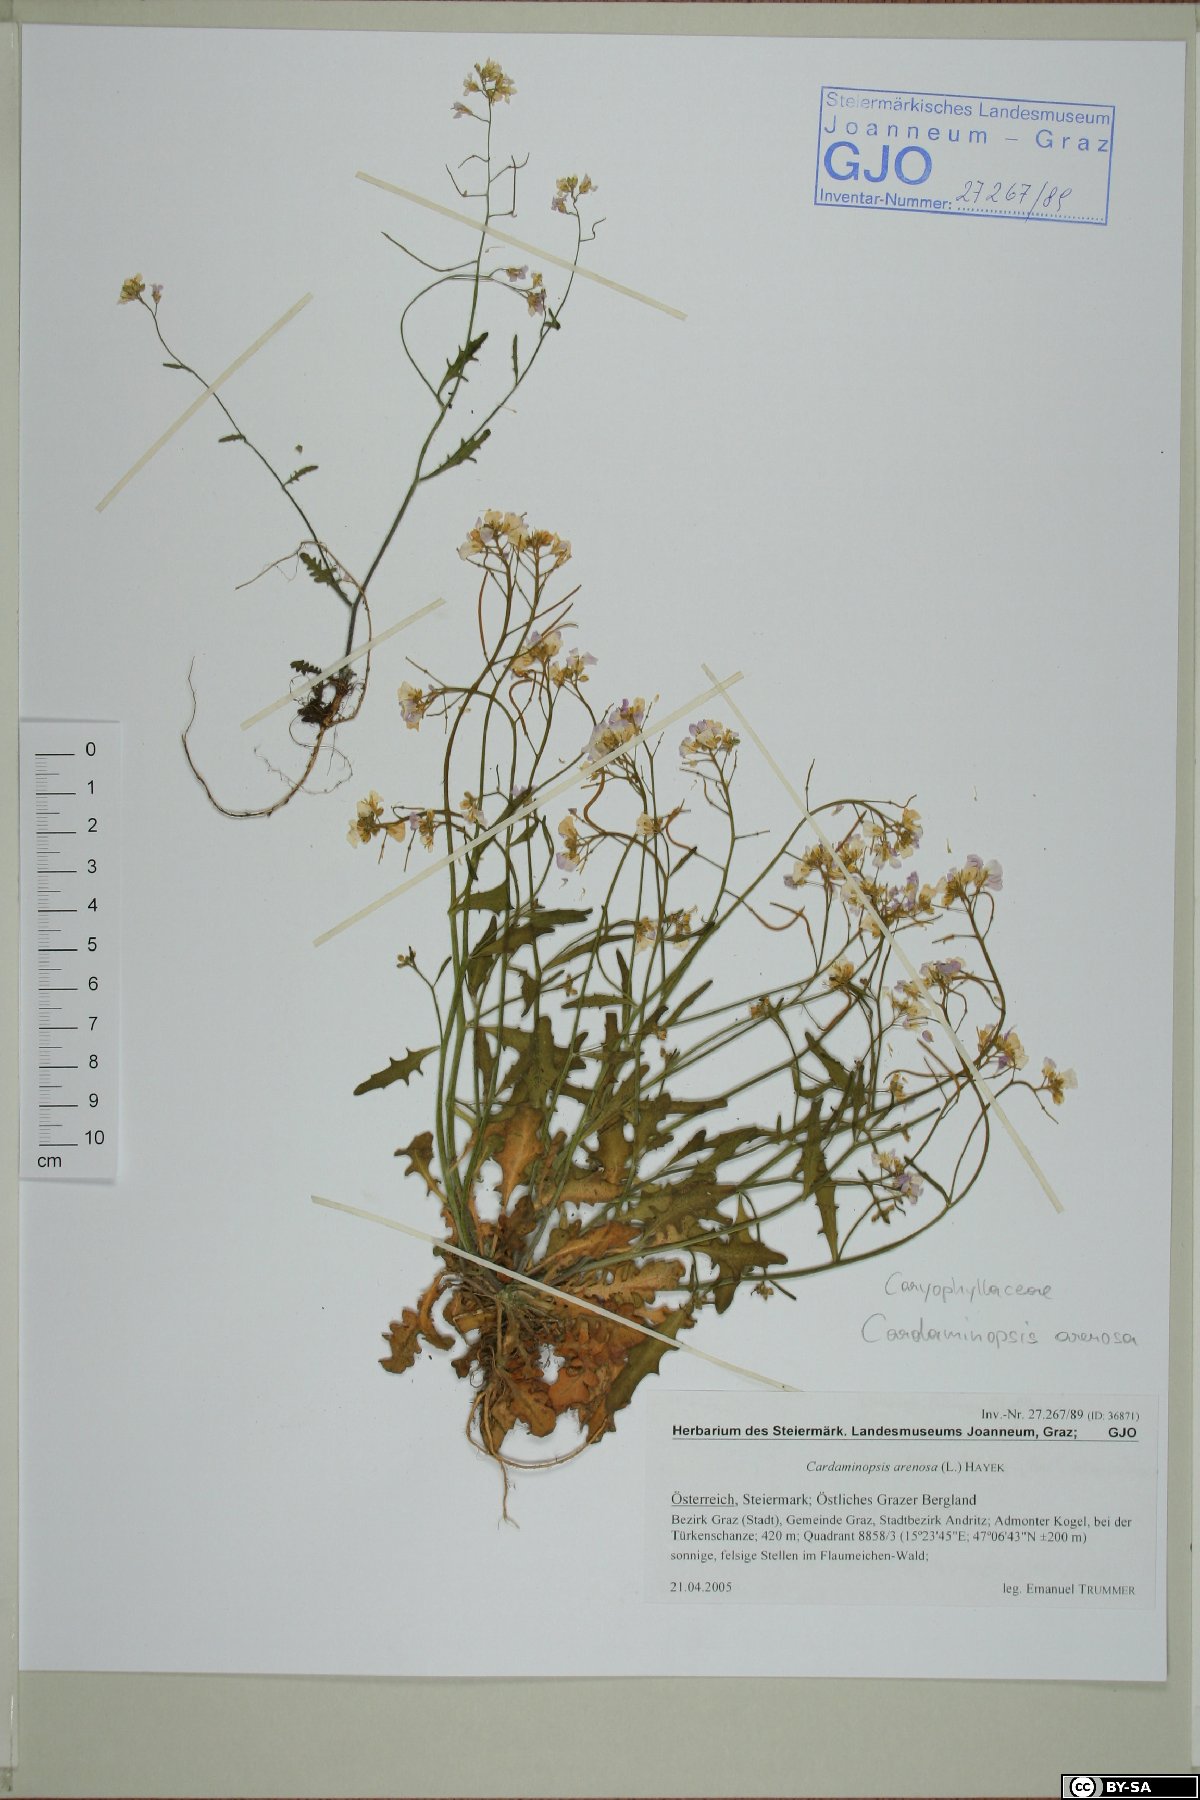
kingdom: Plantae
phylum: Tracheophyta
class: Magnoliopsida
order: Brassicales
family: Brassicaceae
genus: Arabidopsis
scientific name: Arabidopsis arenosa
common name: Sand rock-cress
